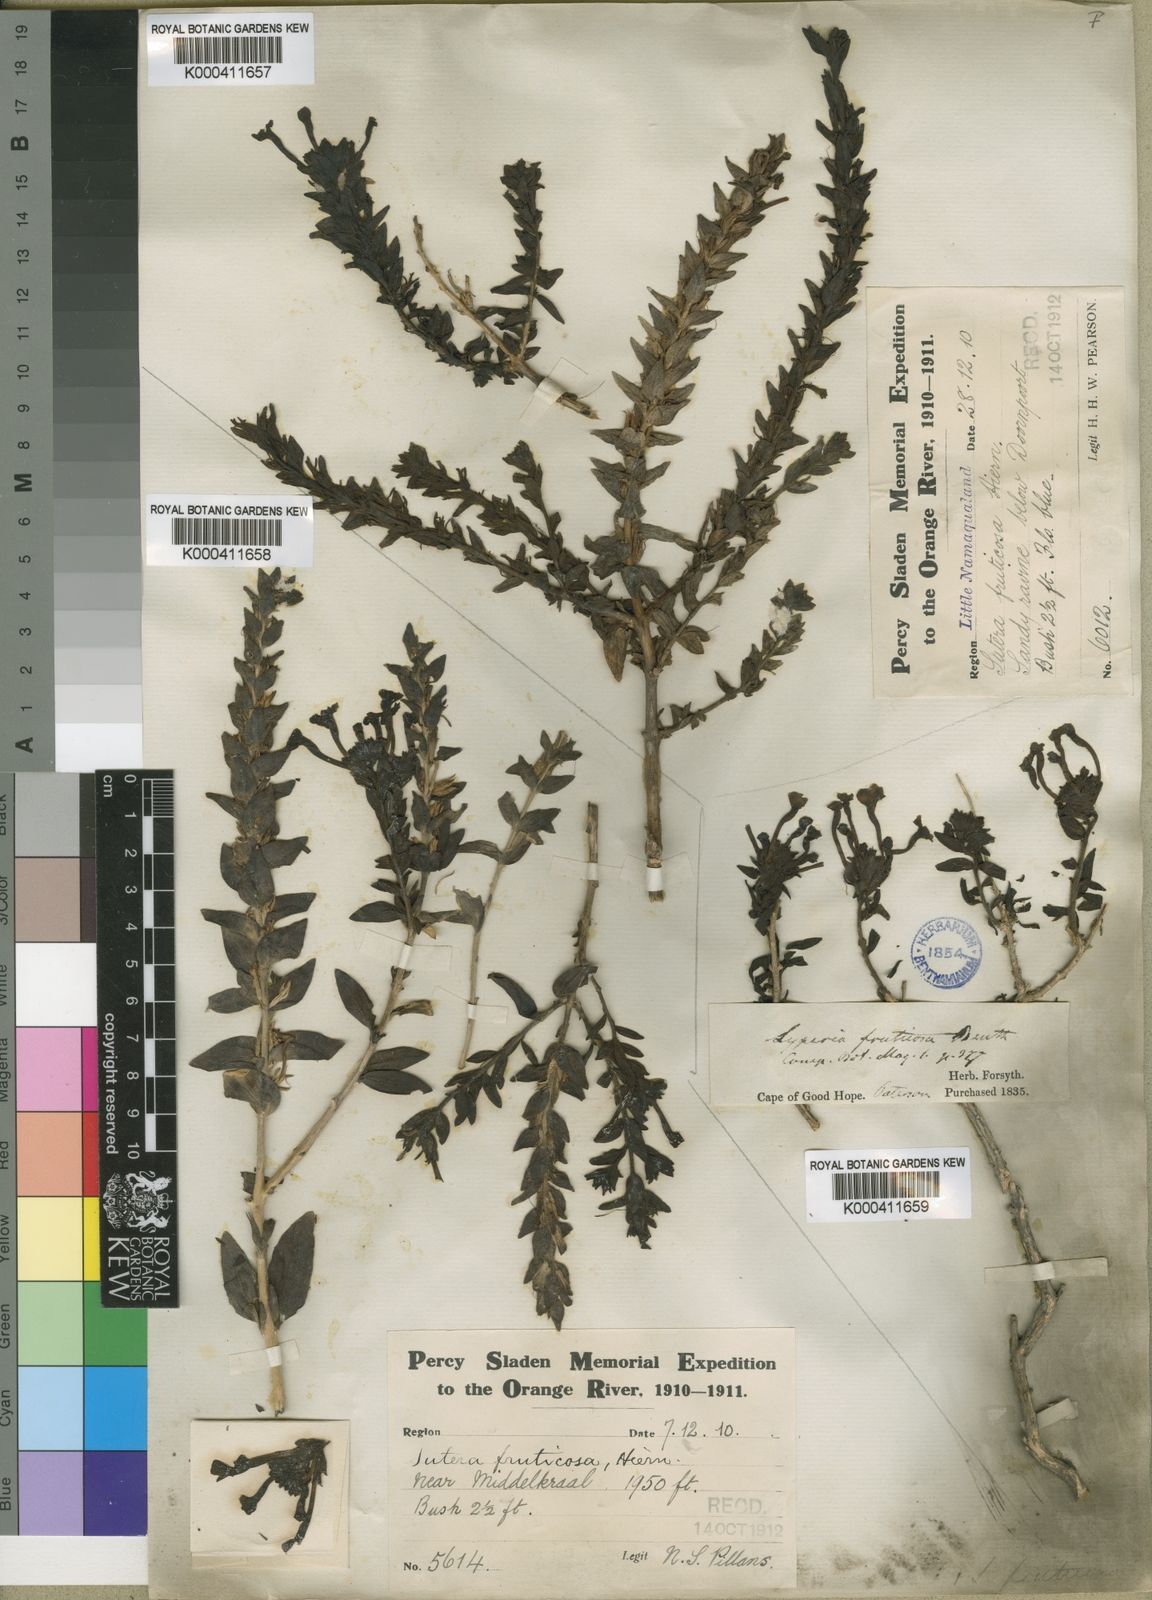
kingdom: Plantae
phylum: Tracheophyta
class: Magnoliopsida
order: Lamiales
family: Scrophulariaceae
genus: Jamesbrittenia
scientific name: Jamesbrittenia fruticosa
